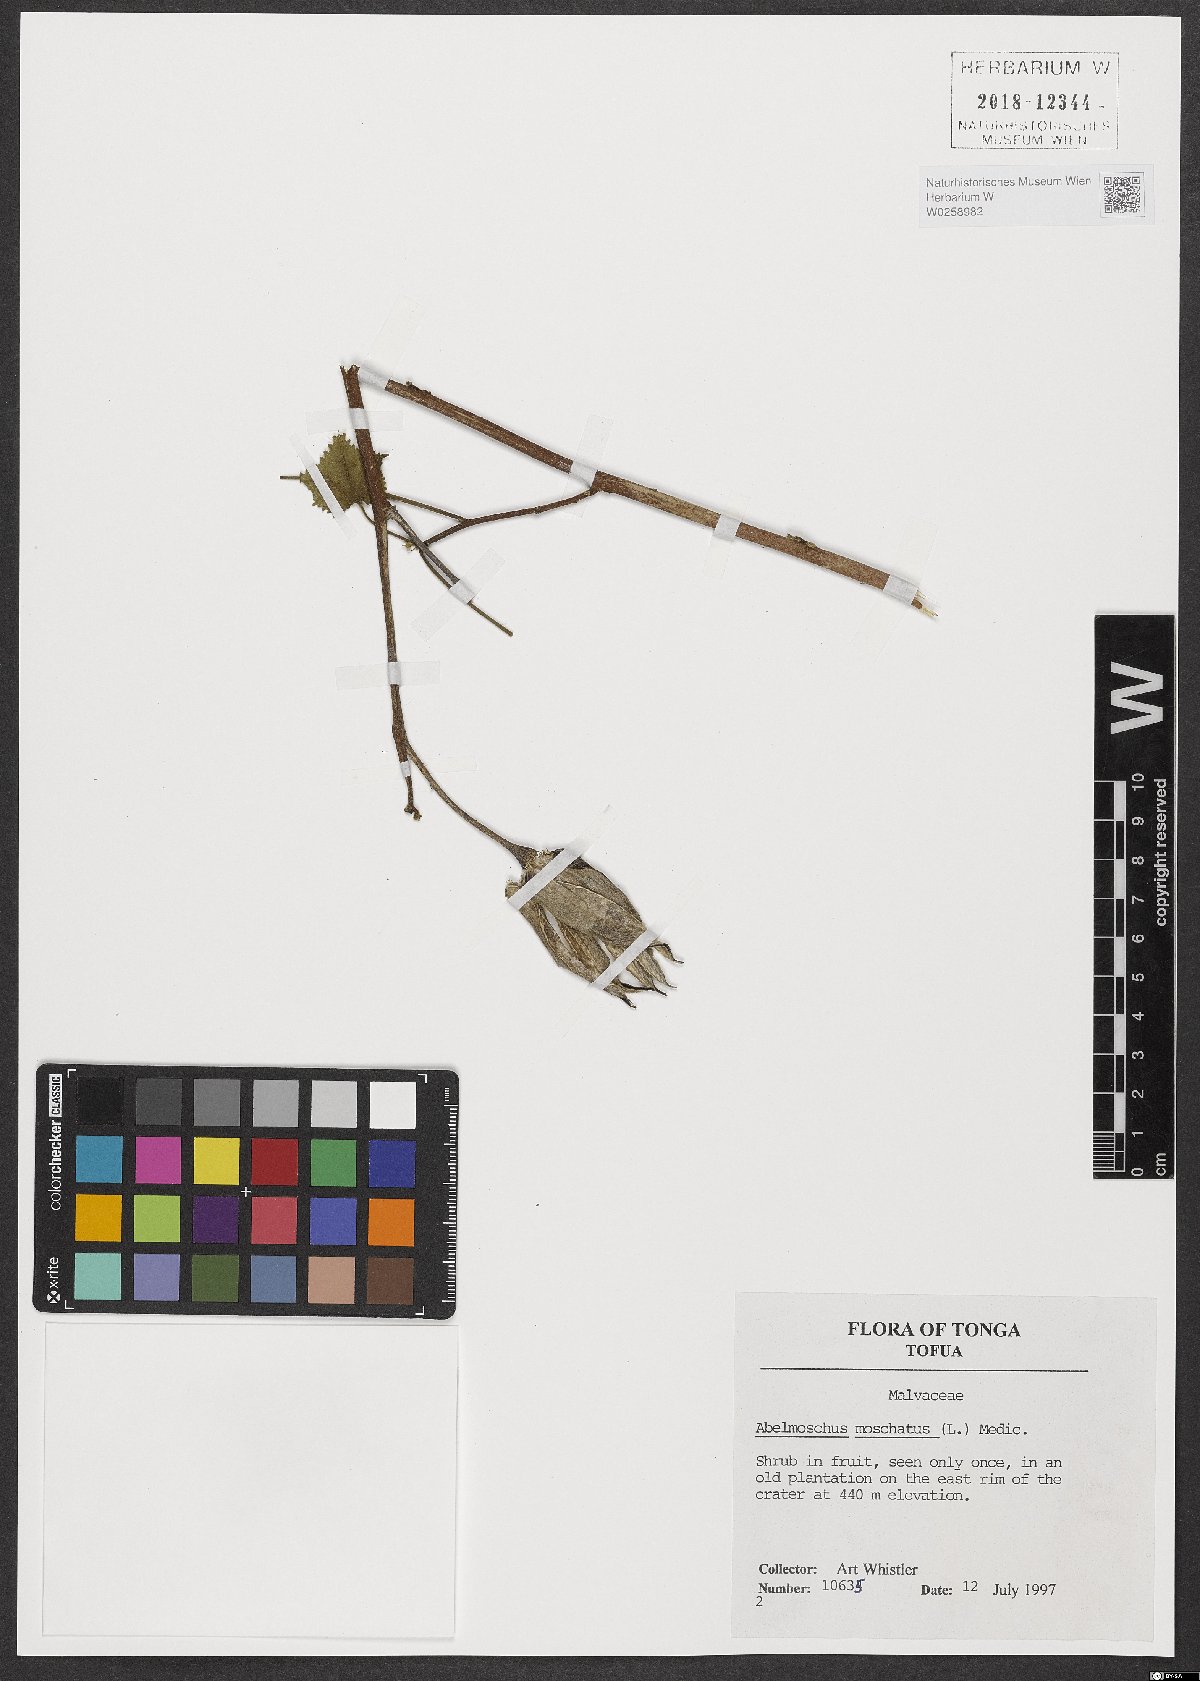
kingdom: Plantae
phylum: Tracheophyta
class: Magnoliopsida
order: Malvales
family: Malvaceae
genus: Abelmoschus
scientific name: Abelmoschus moschatus
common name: Musk okra
